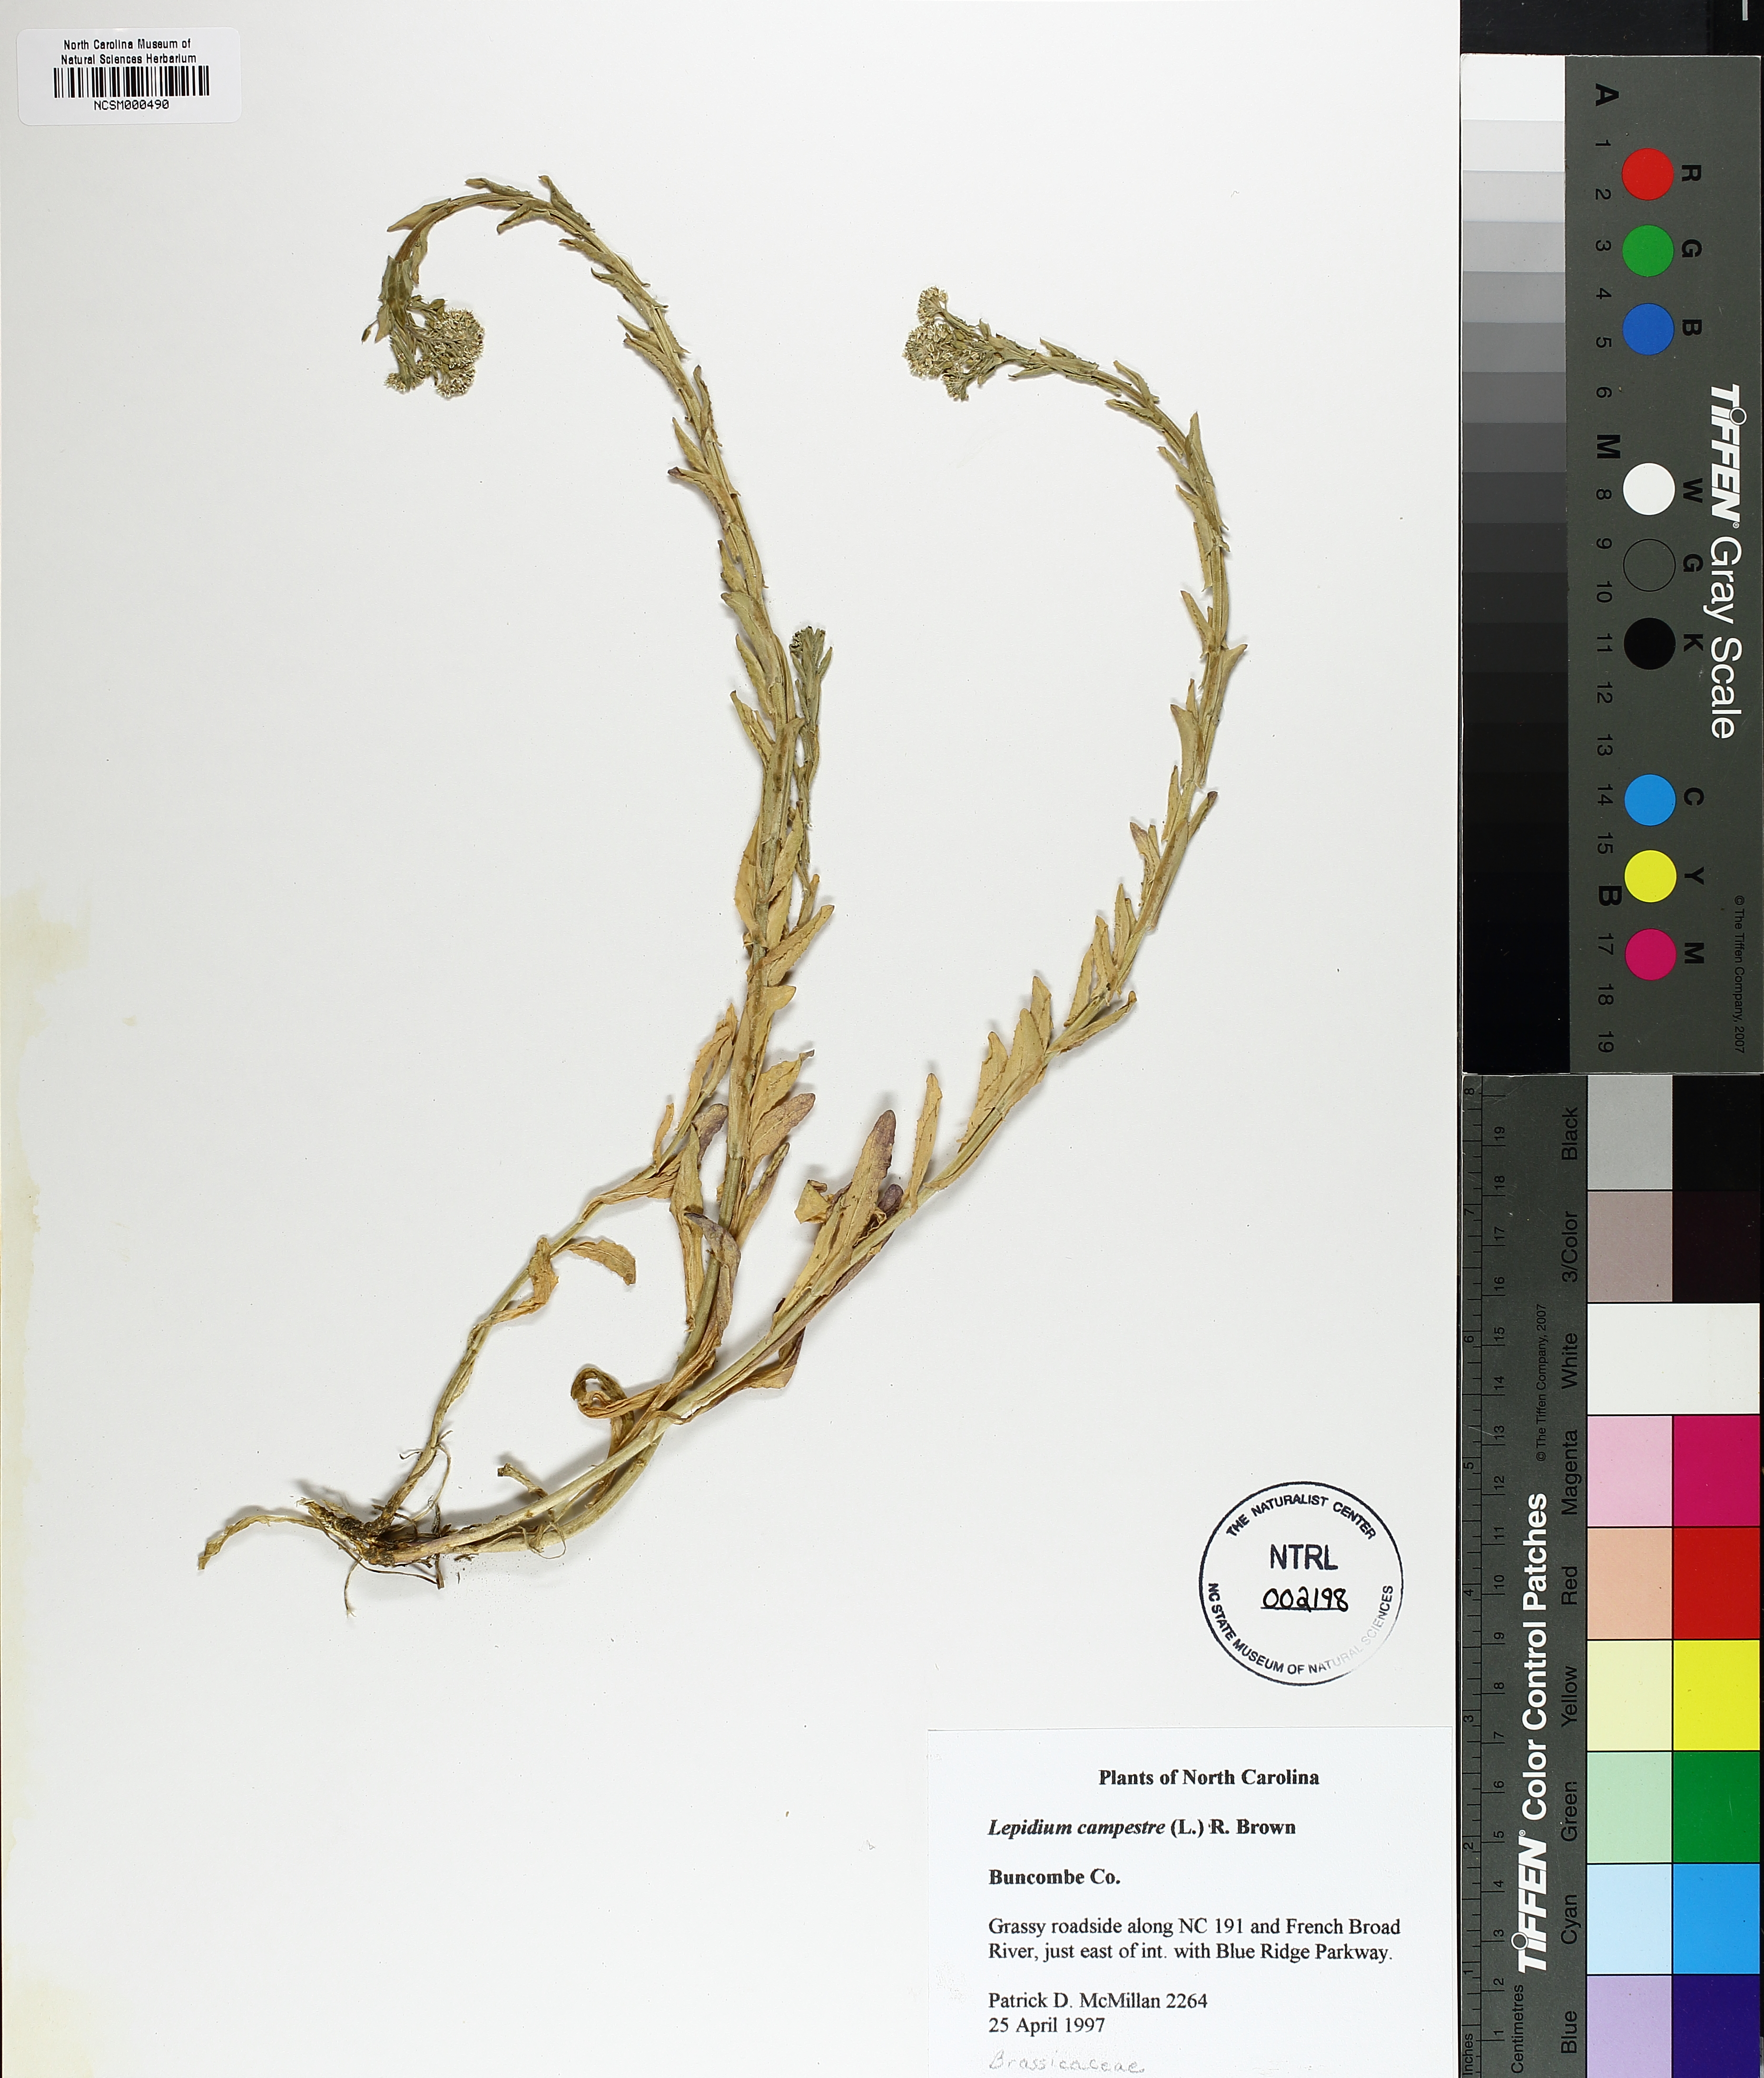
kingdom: Plantae
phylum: Tracheophyta
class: Magnoliopsida
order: Brassicales
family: Brassicaceae
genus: Lepidium
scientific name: Lepidium campestre
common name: Field pepperwort
